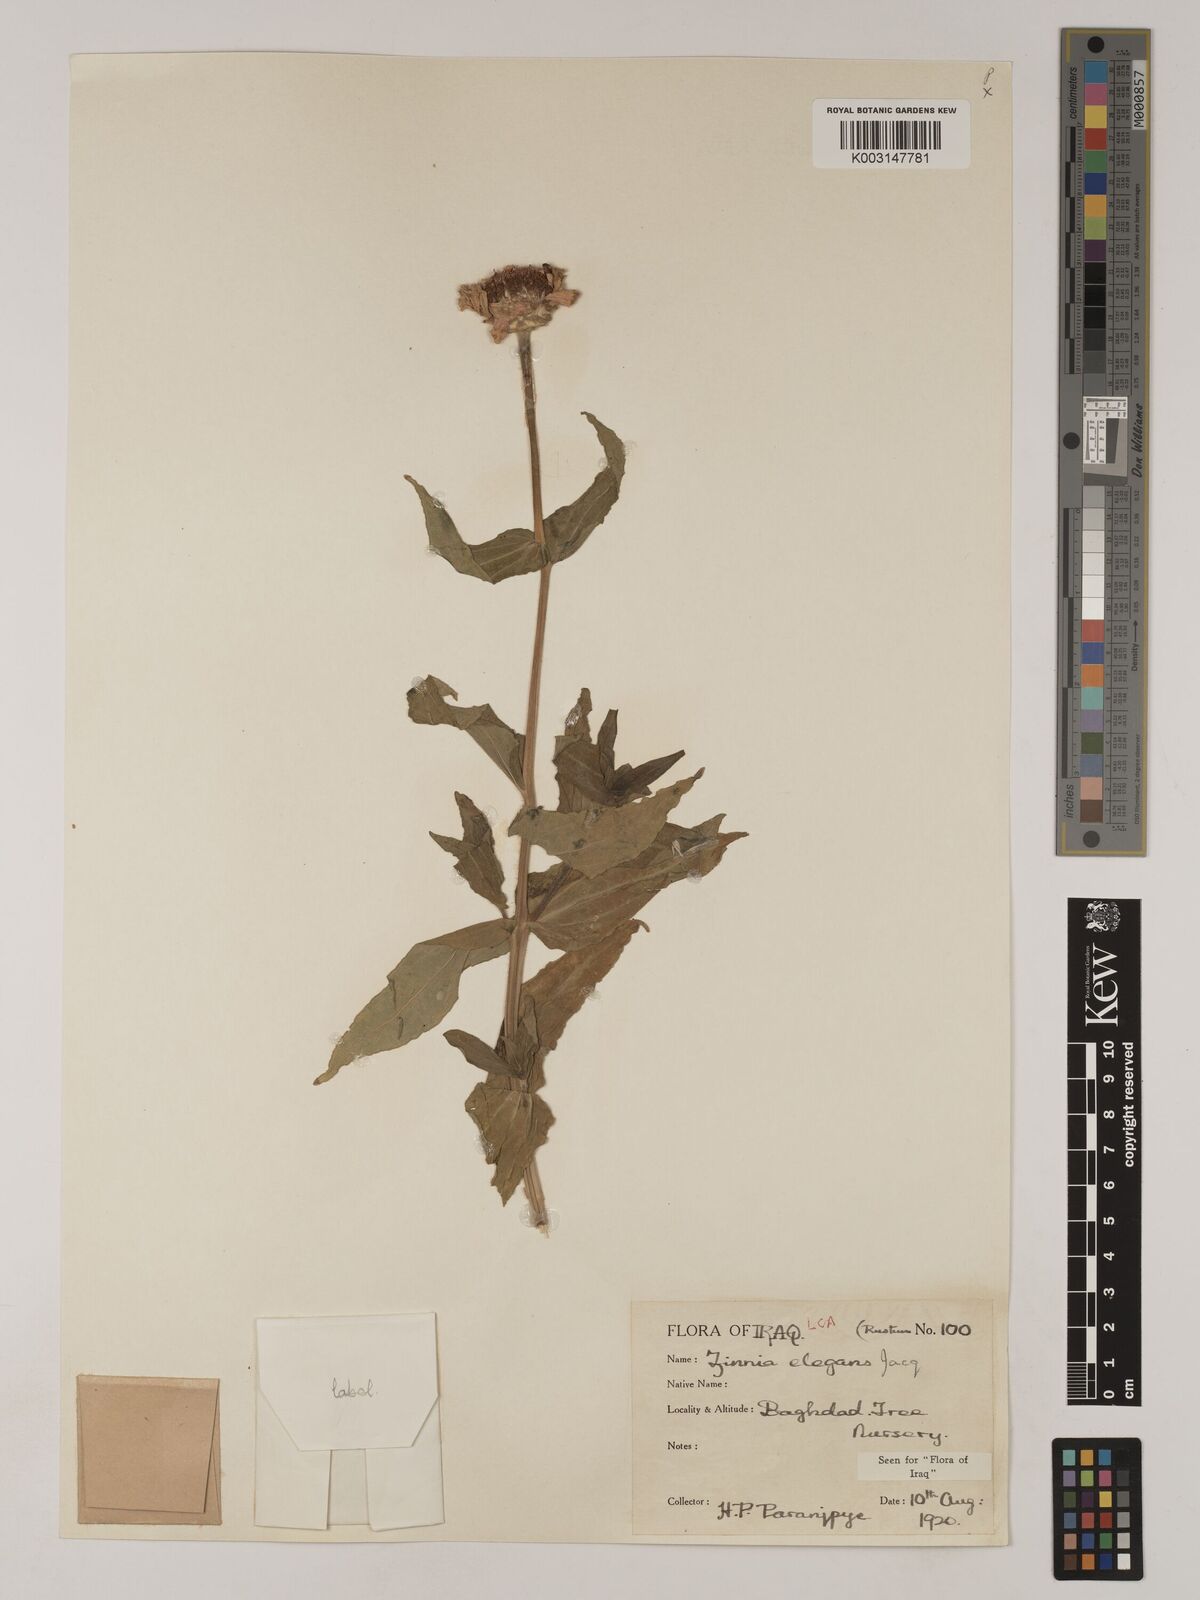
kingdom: Plantae
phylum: Tracheophyta
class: Magnoliopsida
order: Asterales
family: Asteraceae
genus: Zinnia
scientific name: Zinnia elegans
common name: Youth-and-age
